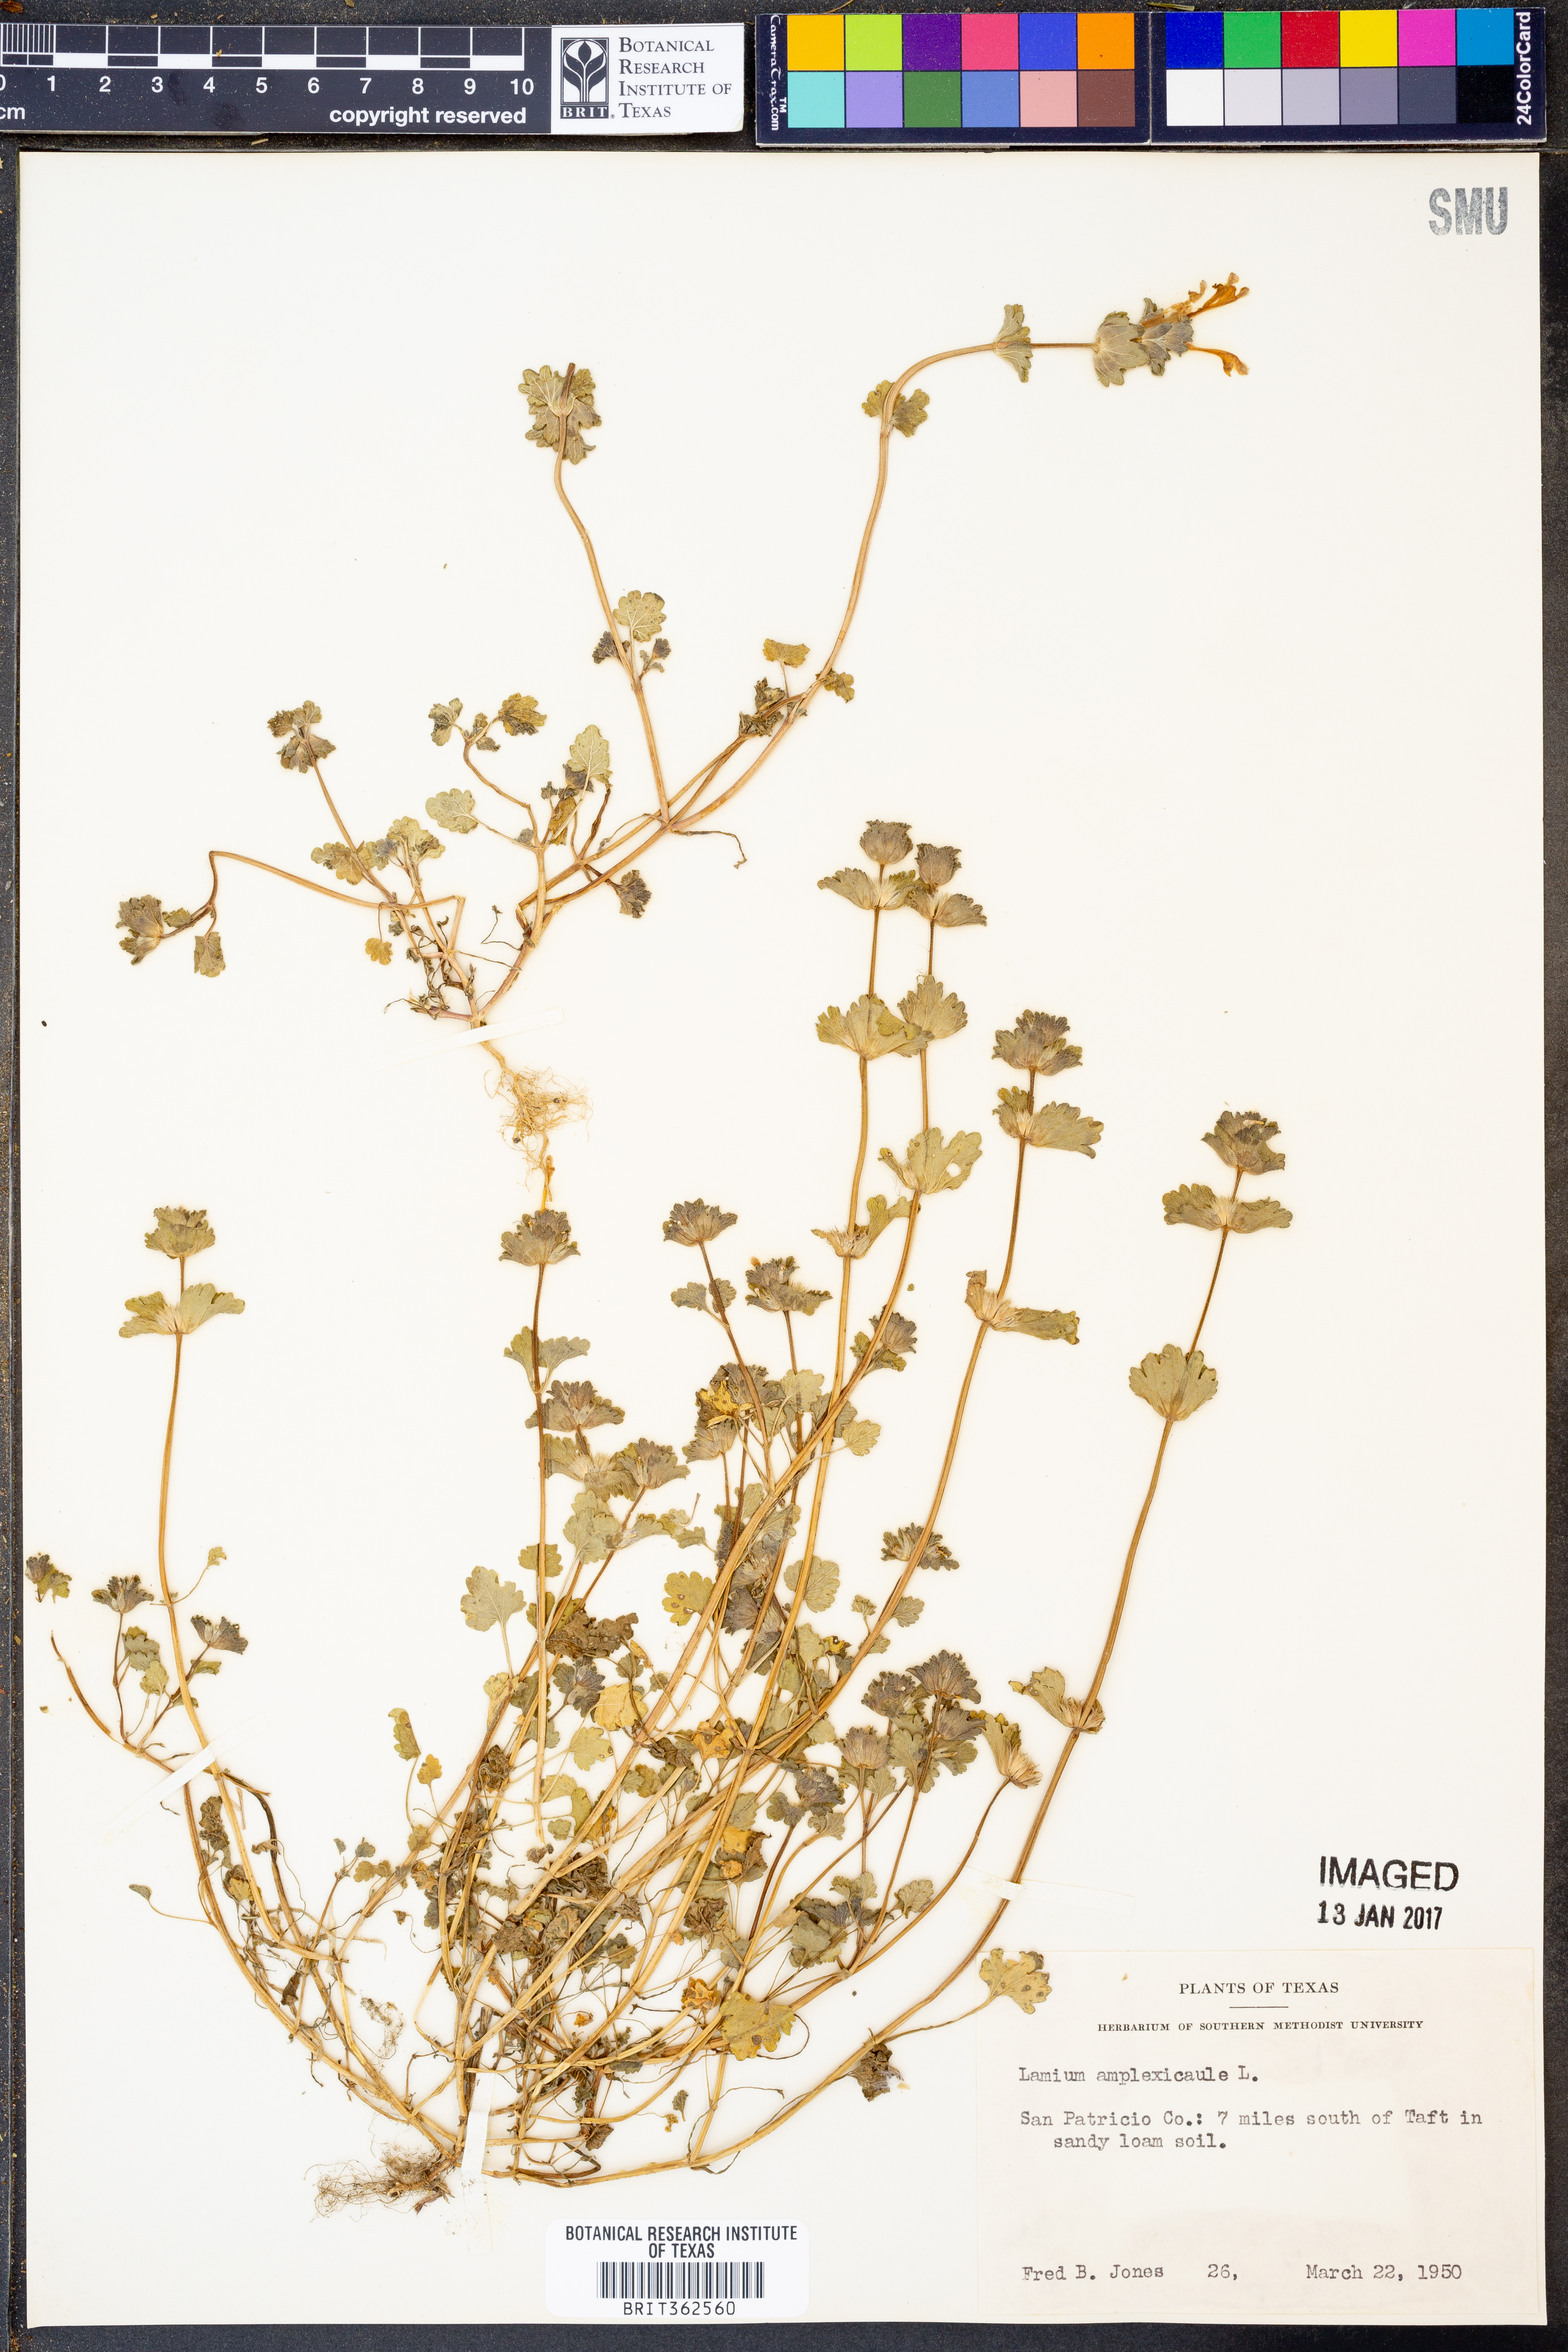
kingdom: Plantae
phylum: Tracheophyta
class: Magnoliopsida
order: Lamiales
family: Lamiaceae
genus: Lamium
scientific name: Lamium amplexicaule
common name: Henbit dead-nettle
